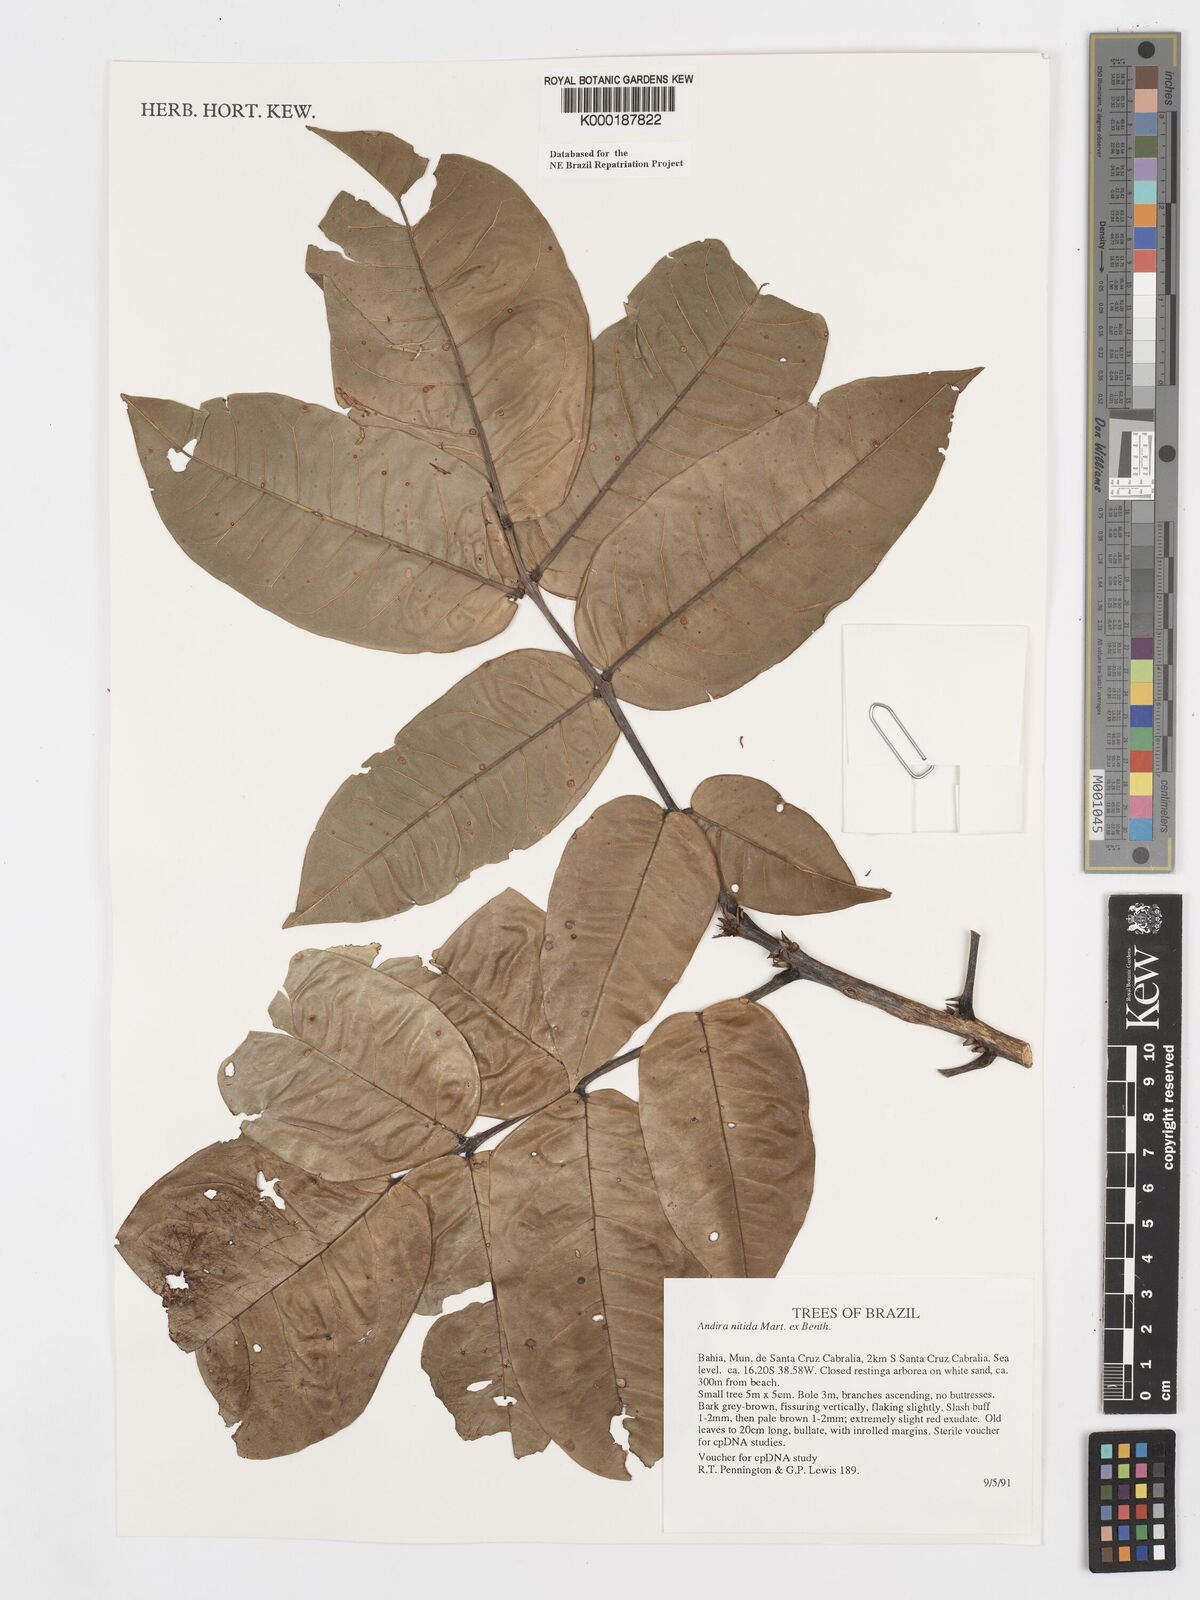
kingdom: Plantae
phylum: Tracheophyta
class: Magnoliopsida
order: Fabales
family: Fabaceae
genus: Andira
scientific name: Andira nitida
